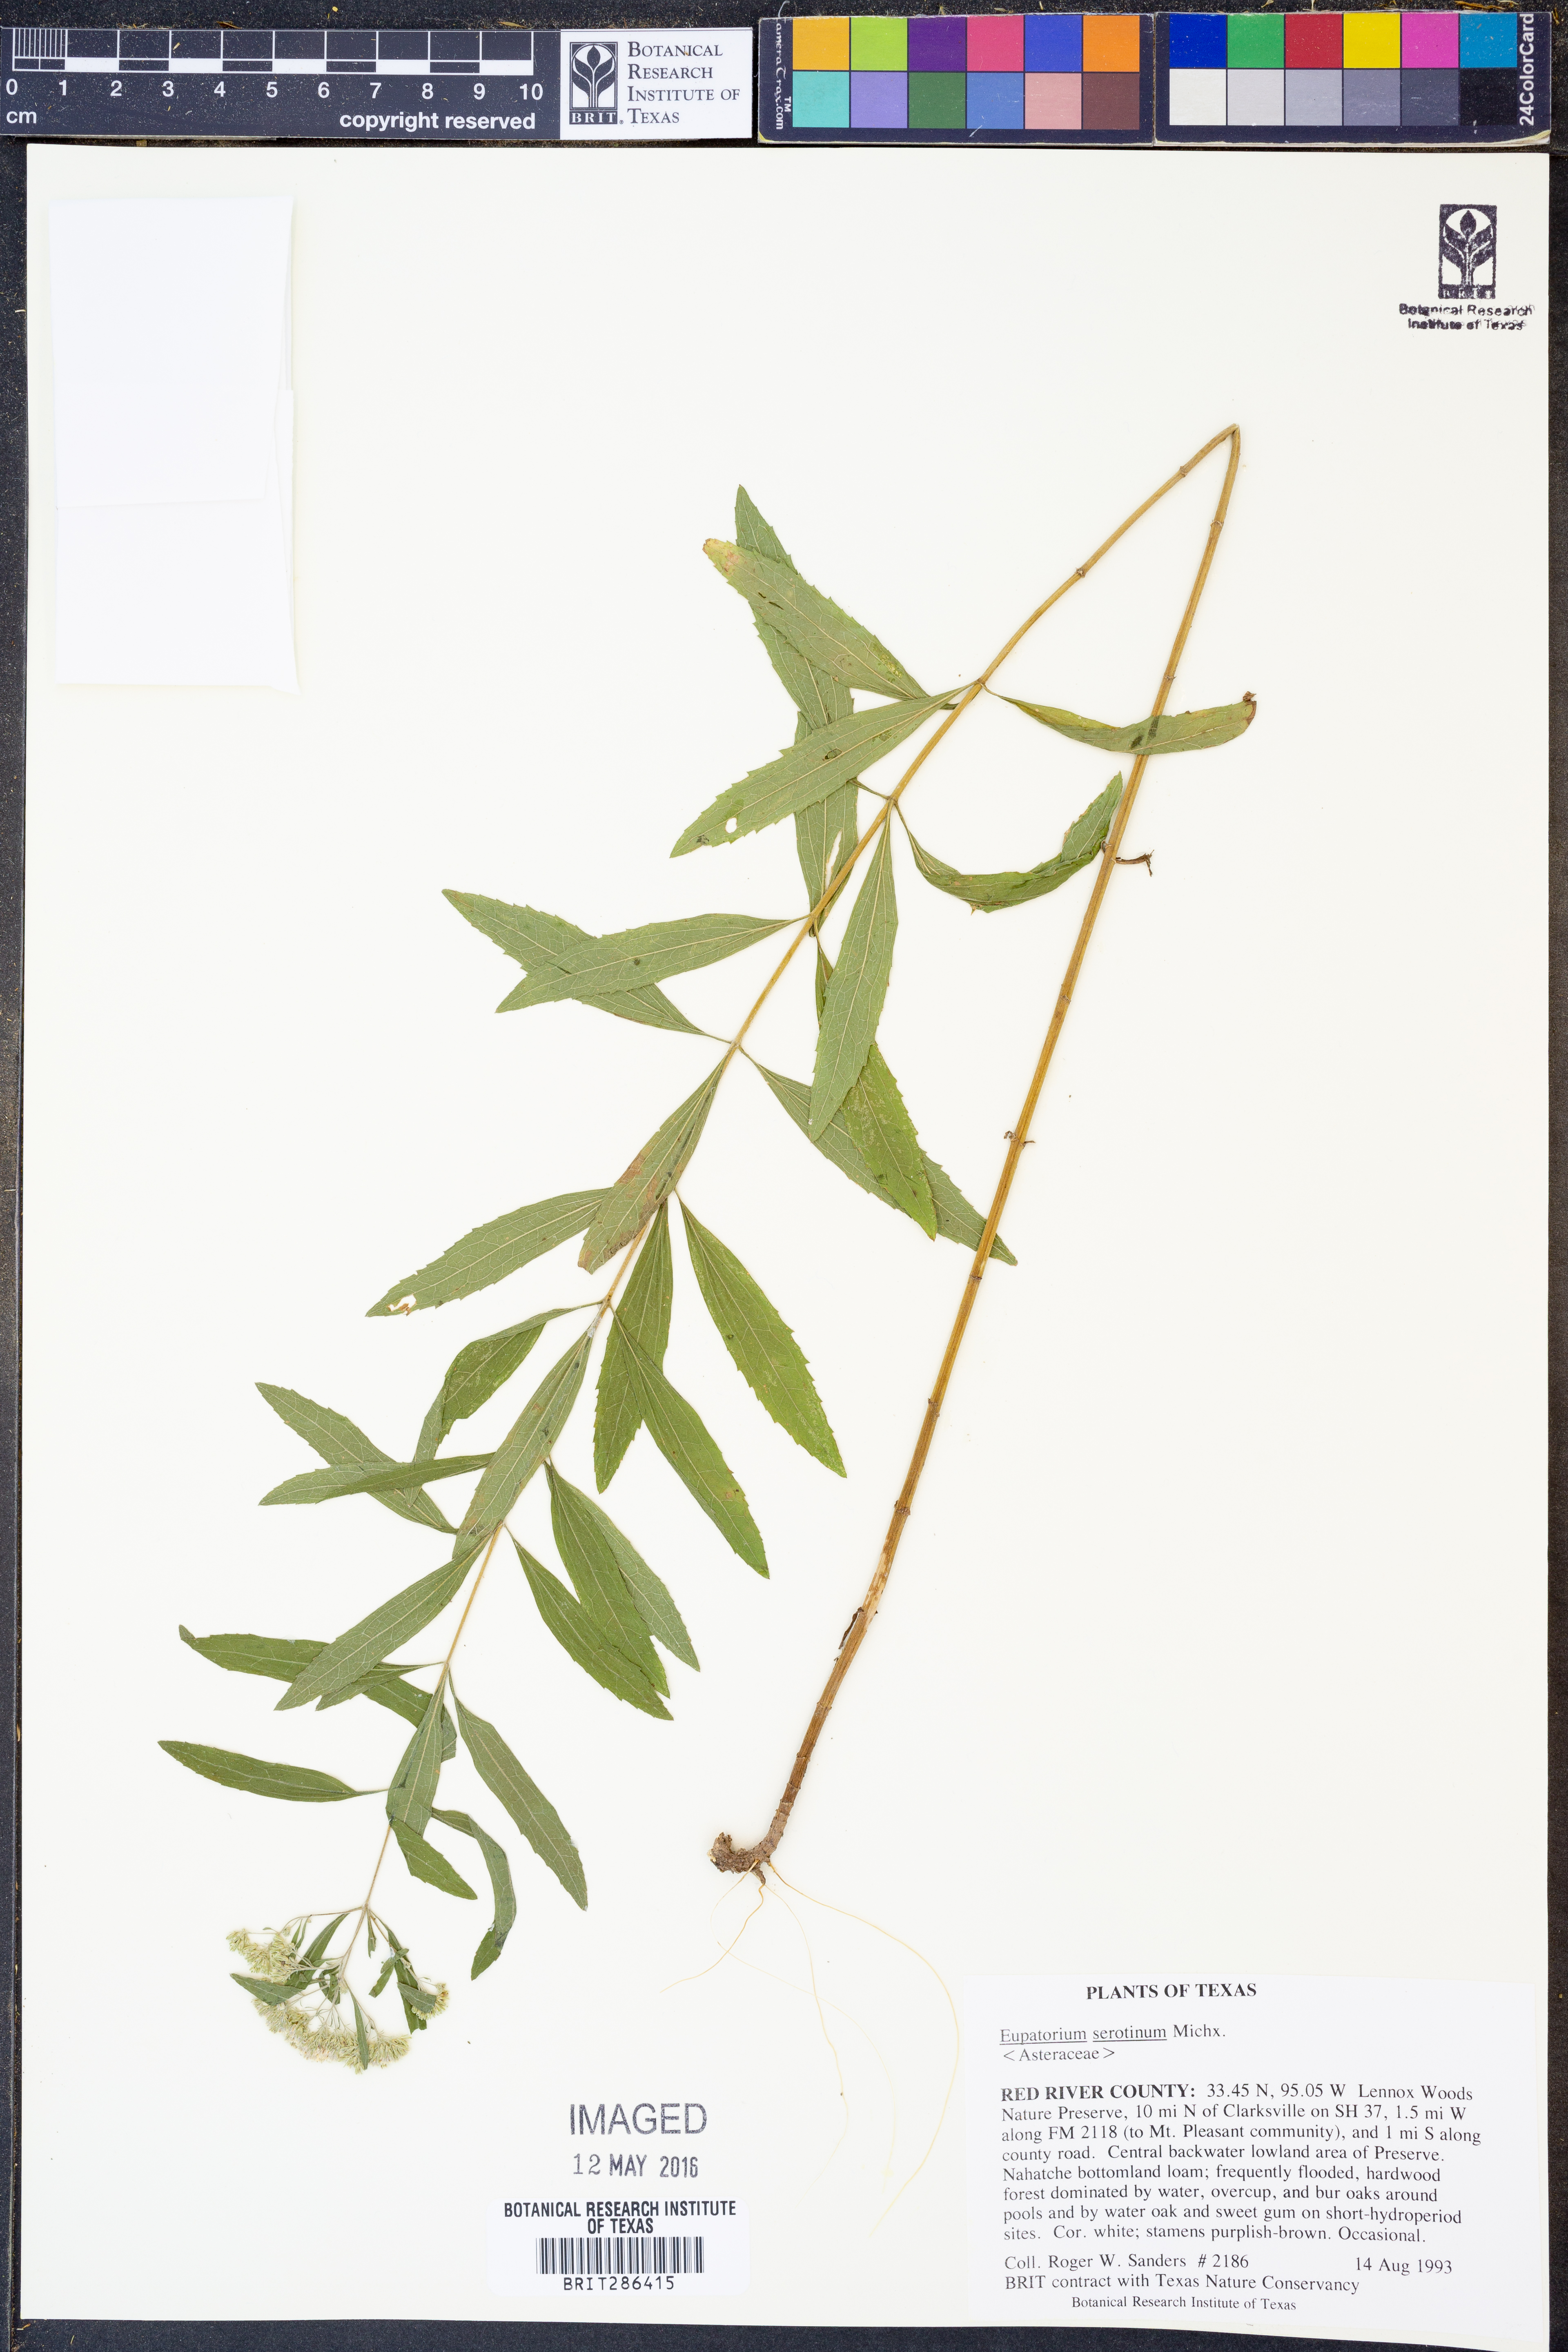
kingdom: Plantae
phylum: Tracheophyta
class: Magnoliopsida
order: Asterales
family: Asteraceae
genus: Eupatorium
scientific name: Eupatorium serotinum
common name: Late boneset
